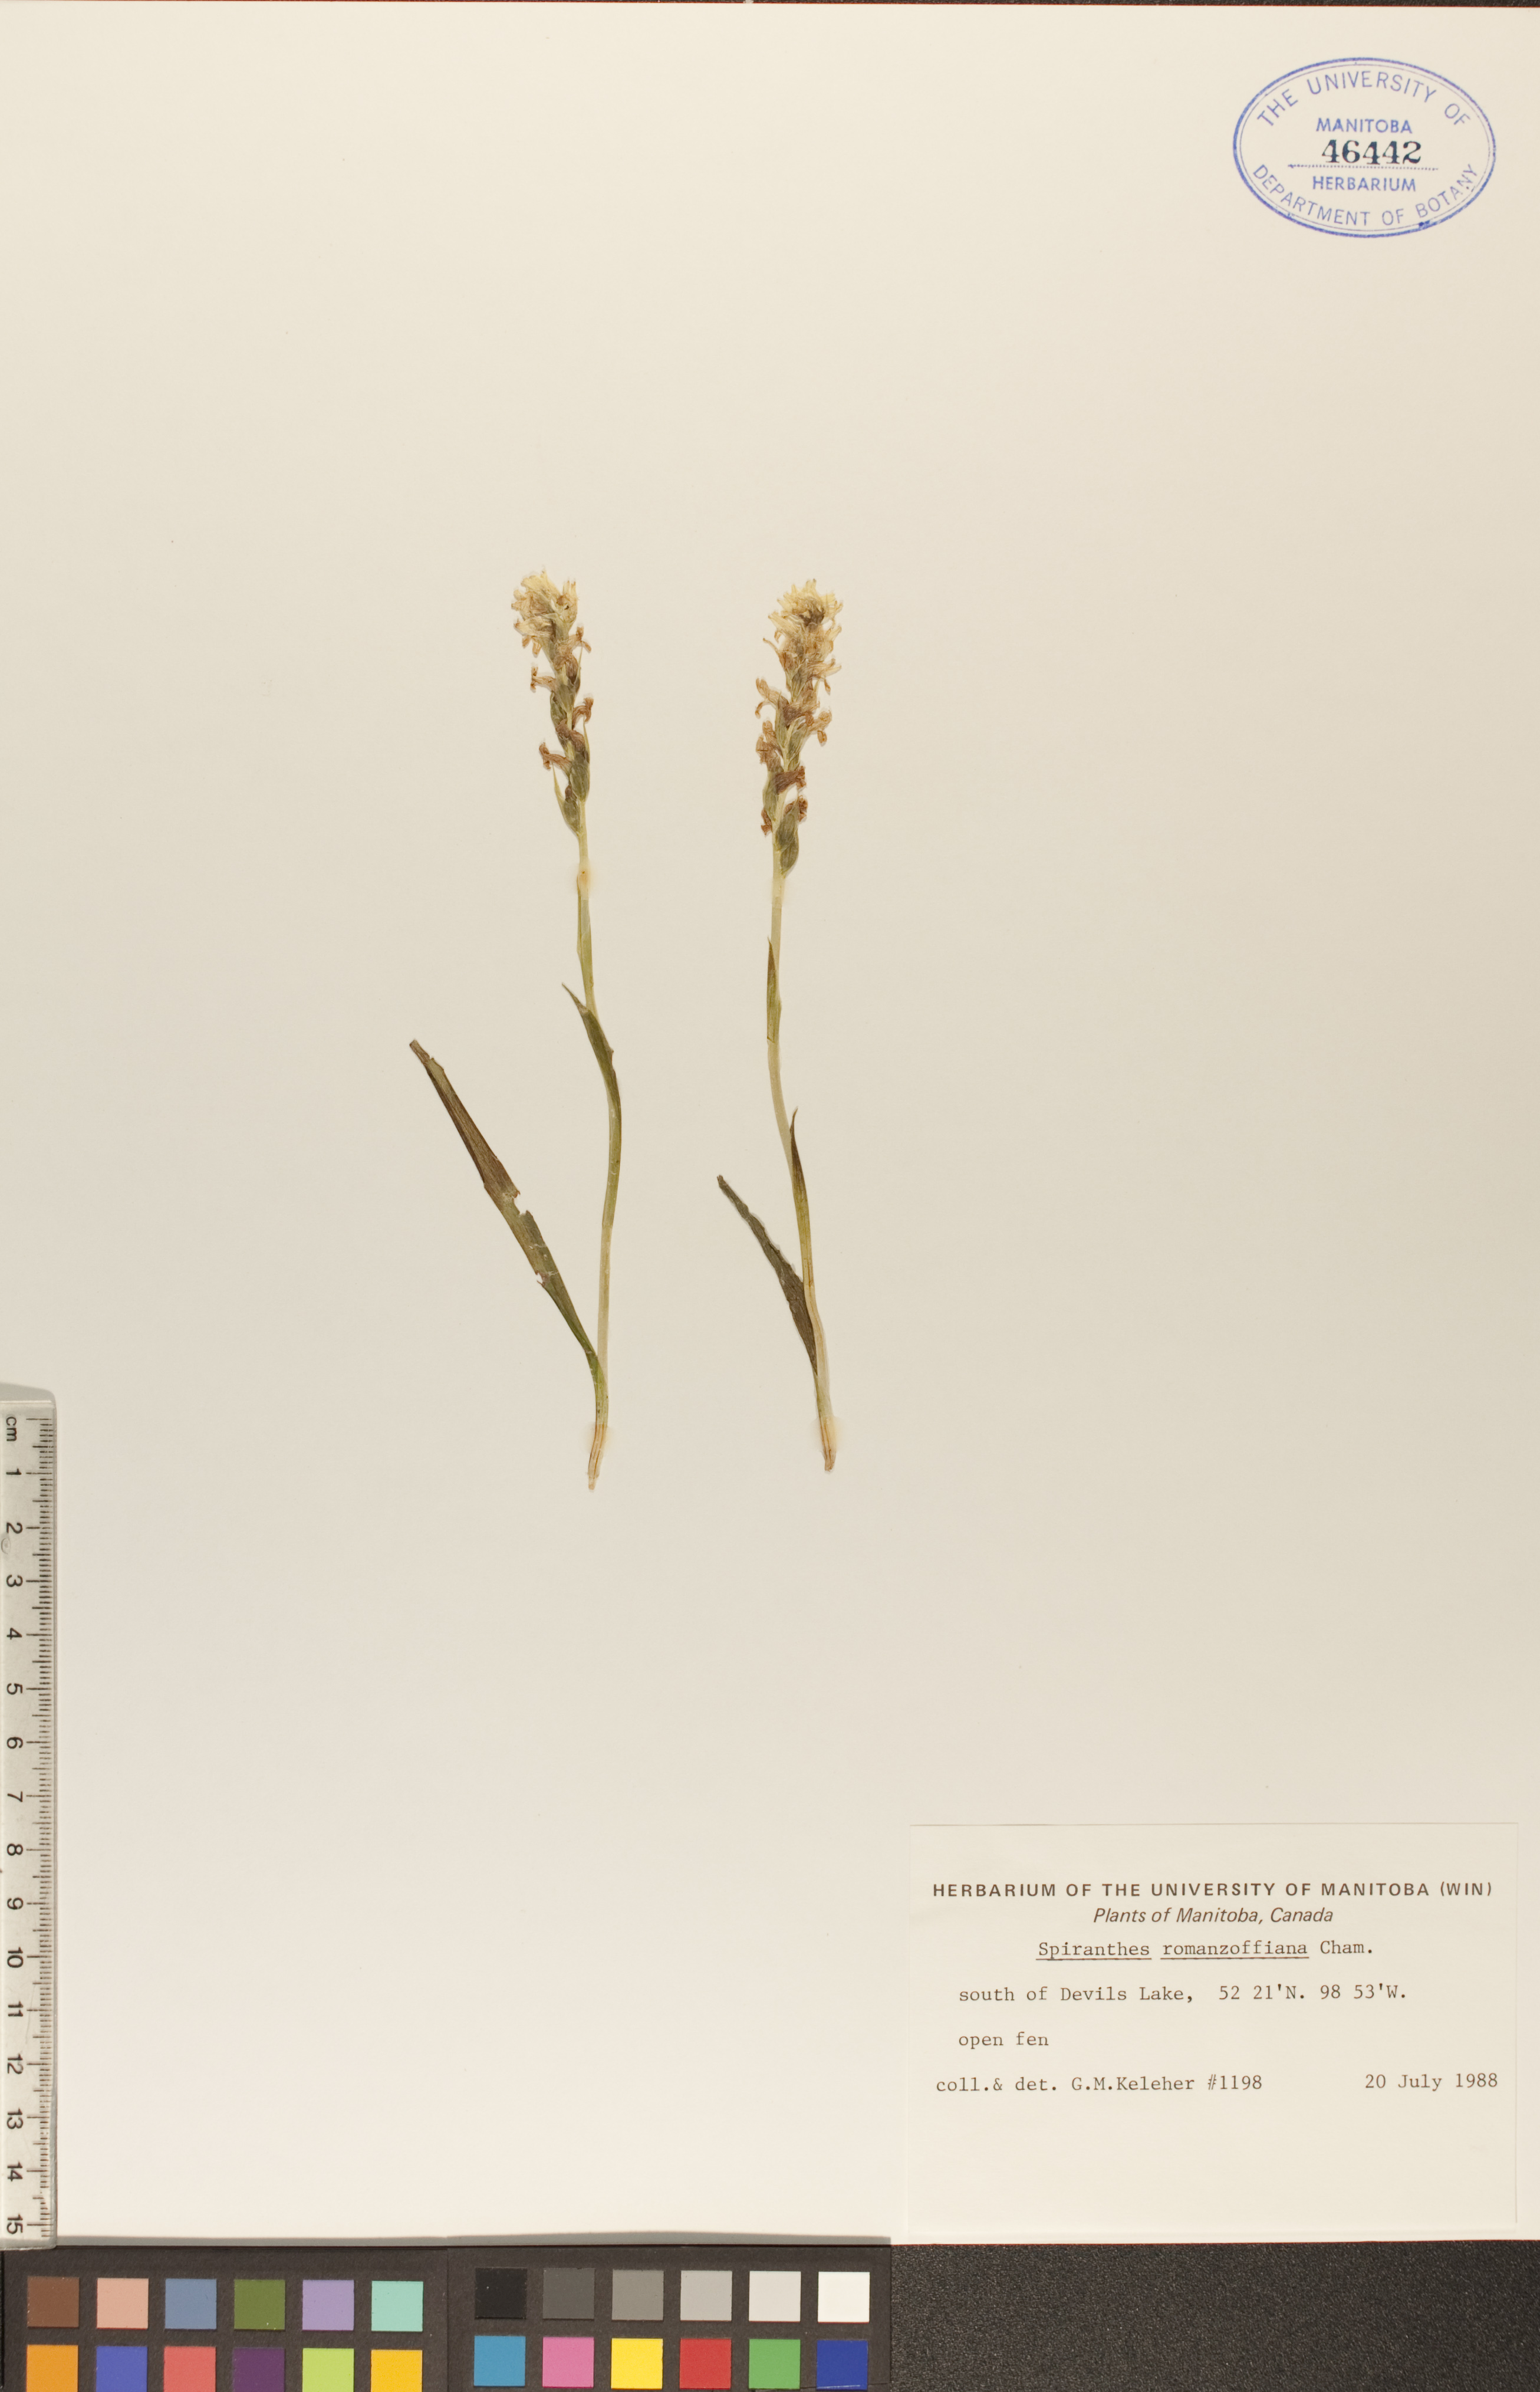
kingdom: Plantae
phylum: Tracheophyta
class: Liliopsida
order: Asparagales
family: Orchidaceae
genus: Spiranthes
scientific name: Spiranthes romanzoffiana
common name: Irish lady's-tresses
